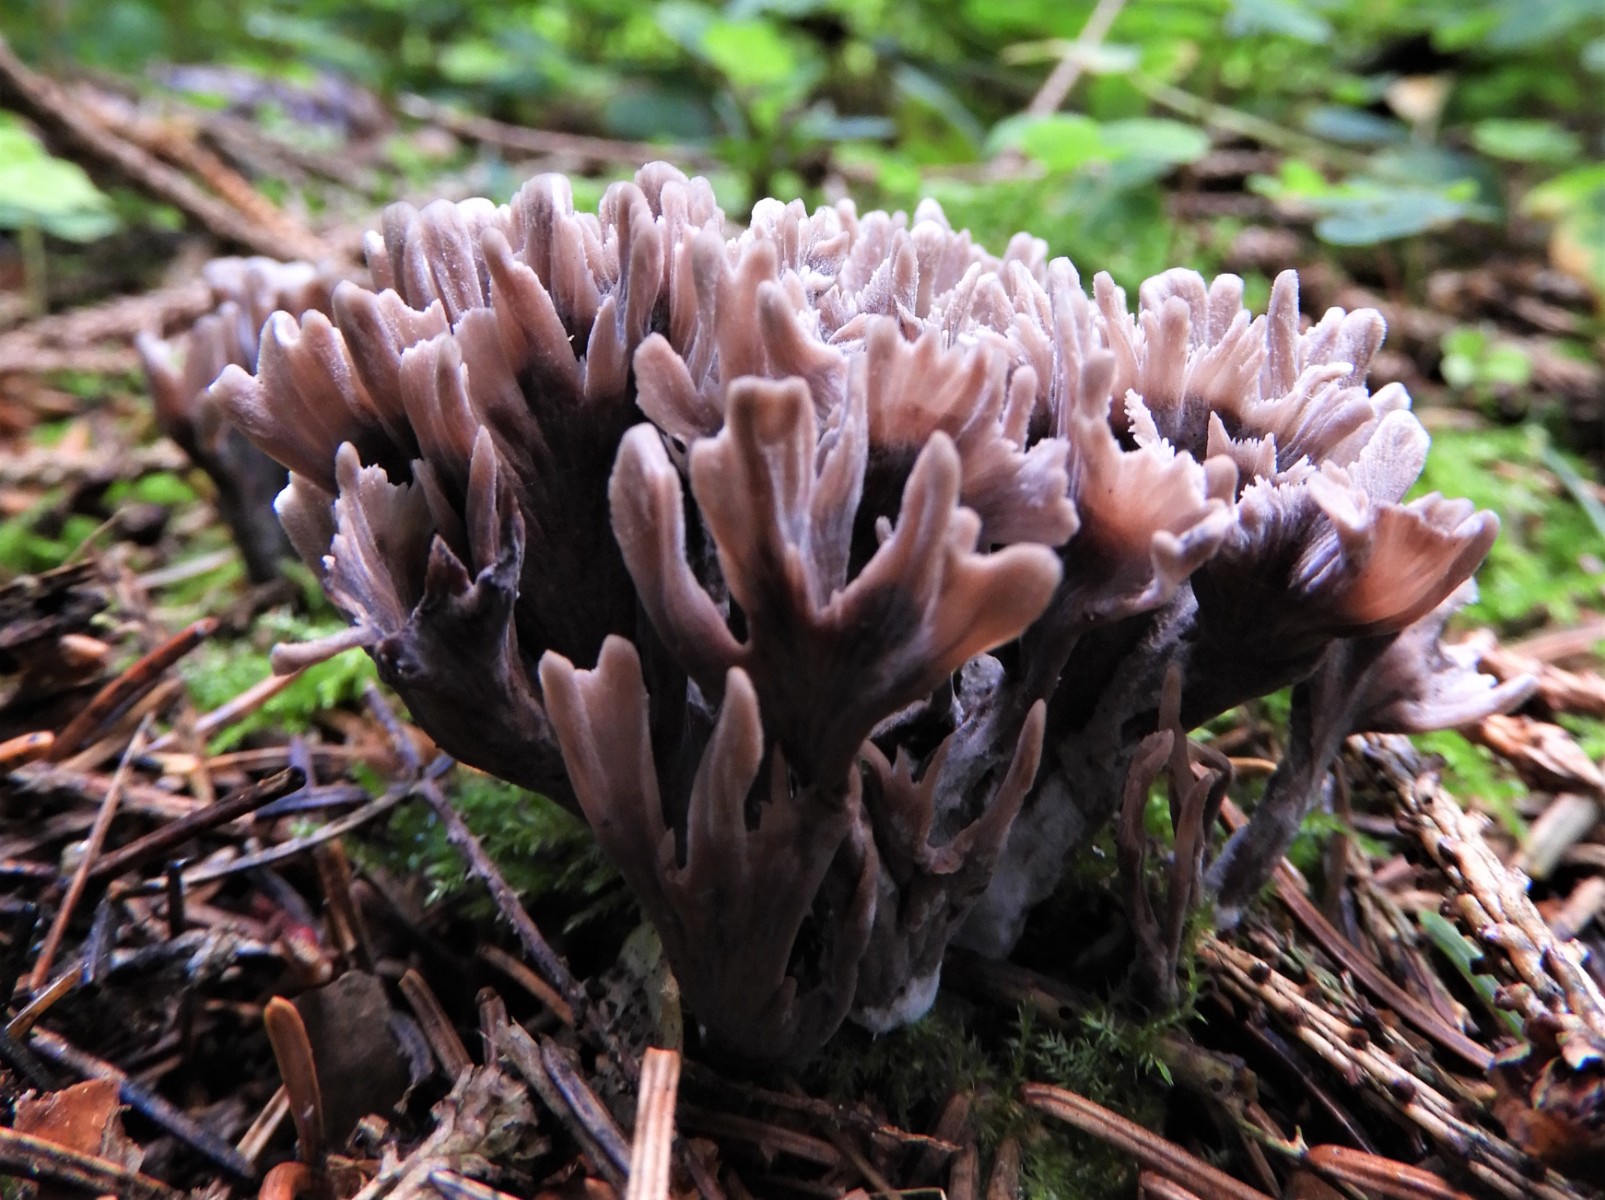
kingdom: Fungi
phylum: Basidiomycota
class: Agaricomycetes
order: Thelephorales
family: Thelephoraceae
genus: Thelephora
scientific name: Thelephora palmata
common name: grenet frynsesvamp
